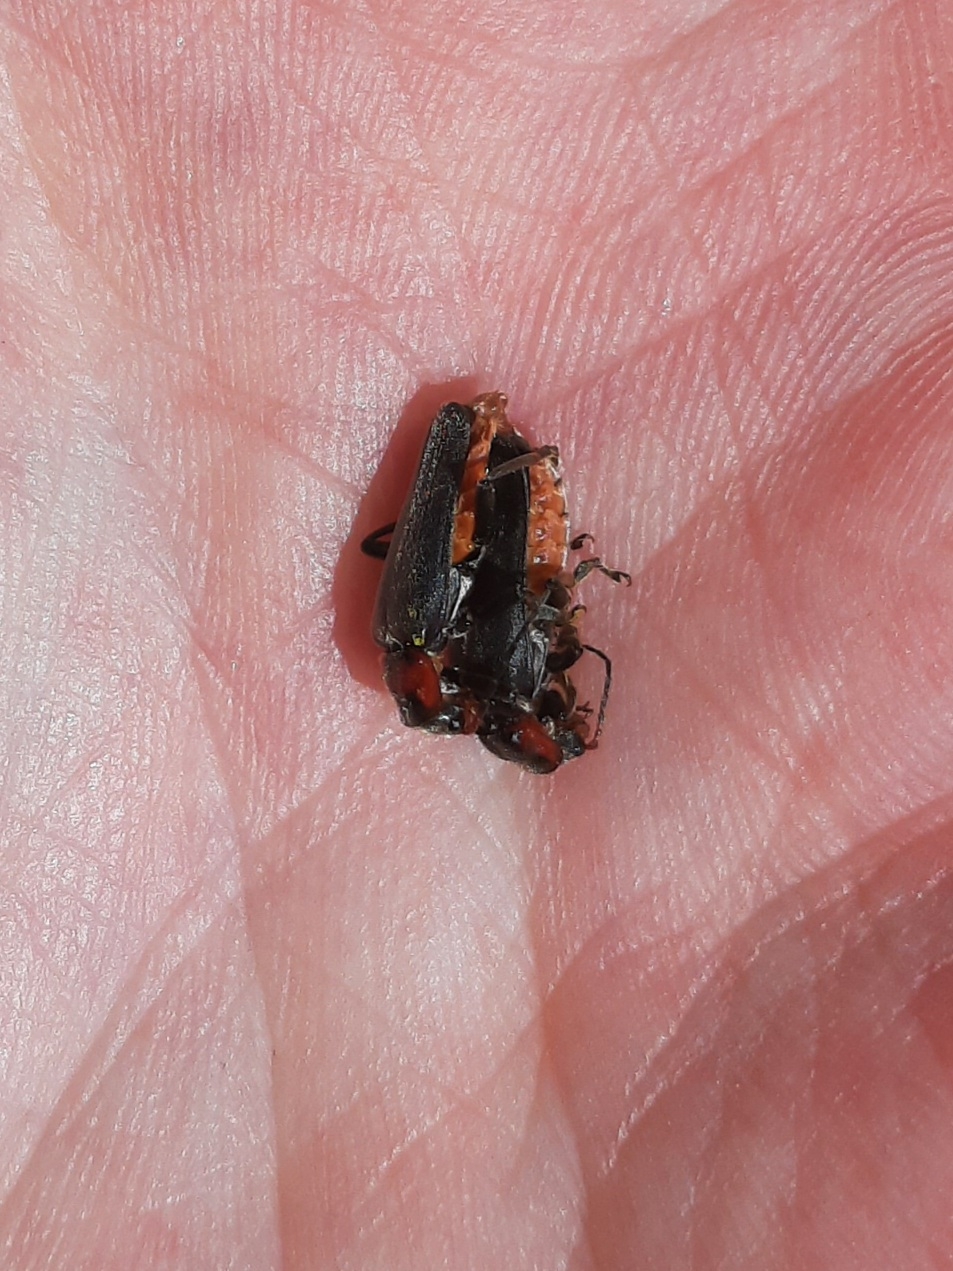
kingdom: Animalia
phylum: Arthropoda
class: Insecta
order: Coleoptera
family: Cantharidae
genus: Cantharis
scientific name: Cantharis fusca
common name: Stor blødvinge
